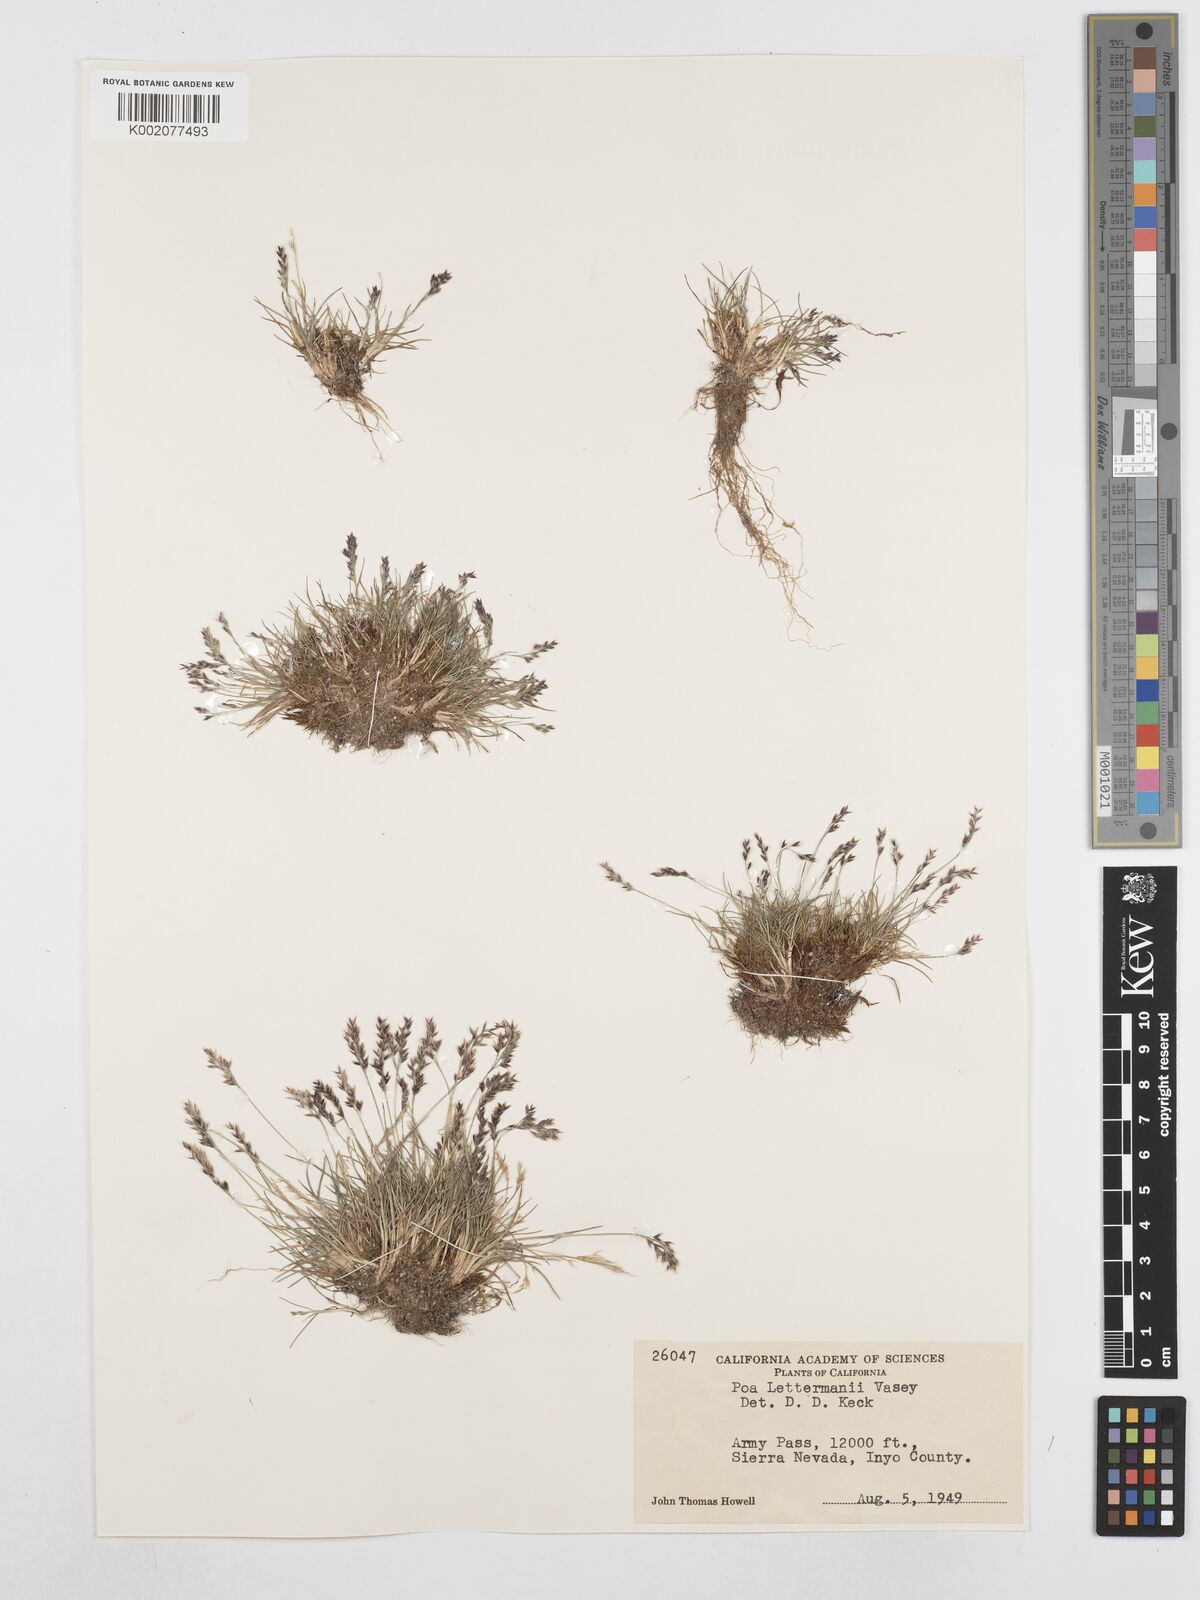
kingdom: Plantae
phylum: Tracheophyta
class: Liliopsida
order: Poales
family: Poaceae
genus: Poa
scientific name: Poa lettermanii
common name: Letterman's bluegrass
